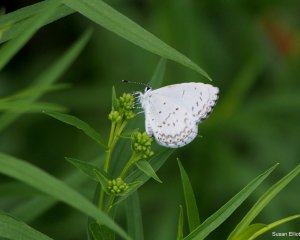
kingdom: Animalia
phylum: Arthropoda
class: Insecta
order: Lepidoptera
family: Lycaenidae
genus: Cyaniris
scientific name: Cyaniris neglecta
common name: Summer Azure
